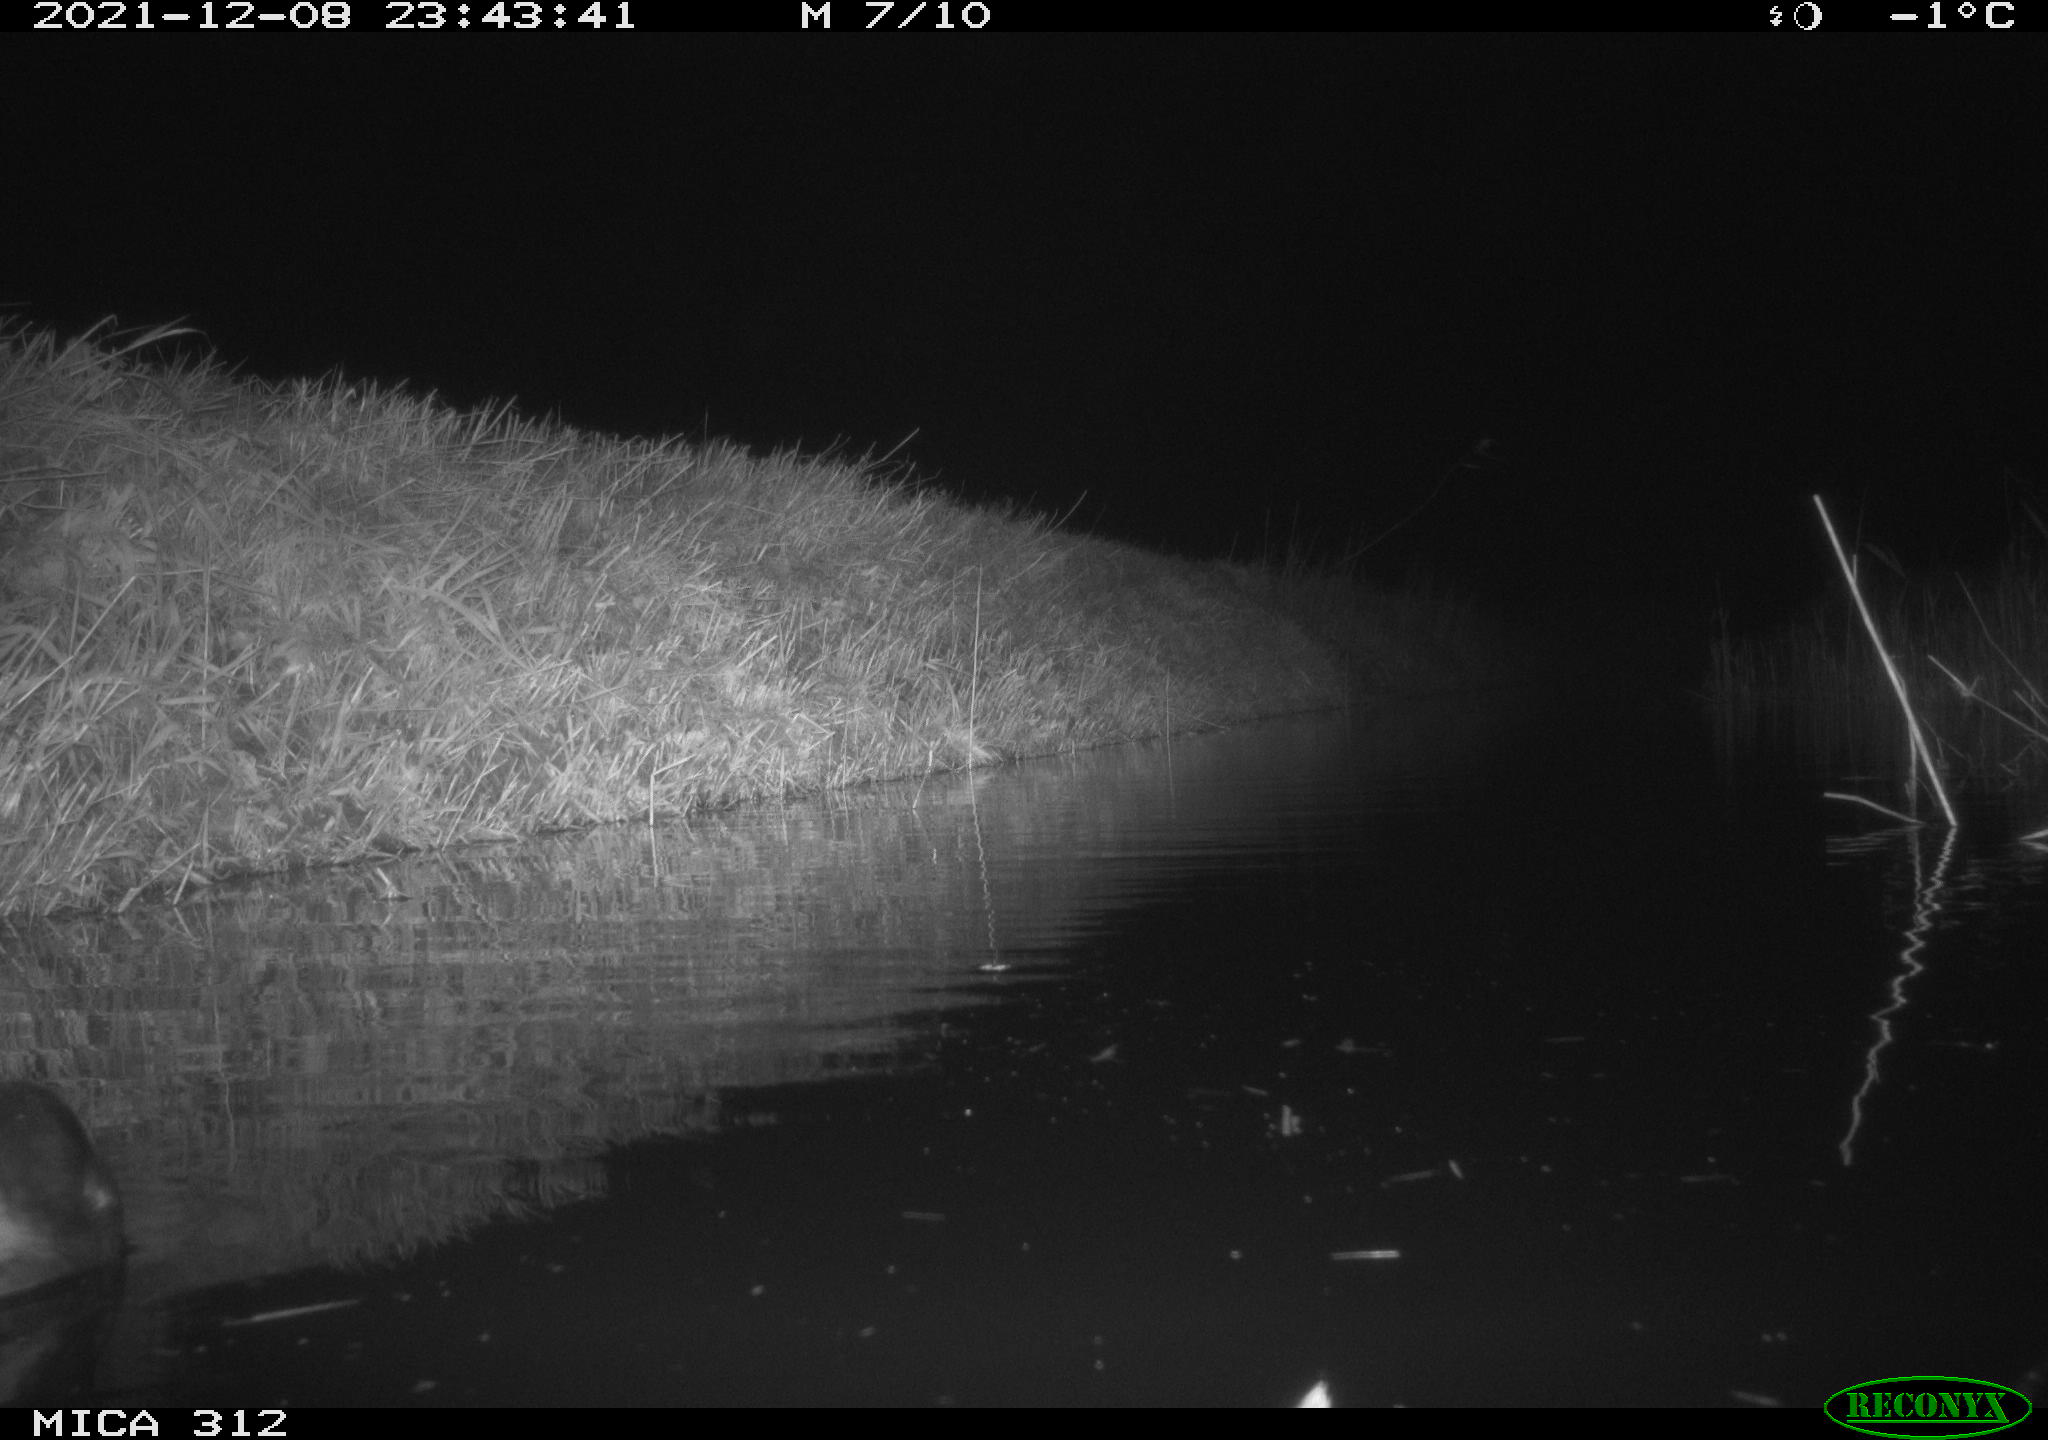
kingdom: Animalia
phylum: Chordata
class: Aves
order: Gruiformes
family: Rallidae
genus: Gallinula
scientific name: Gallinula chloropus
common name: Common moorhen
